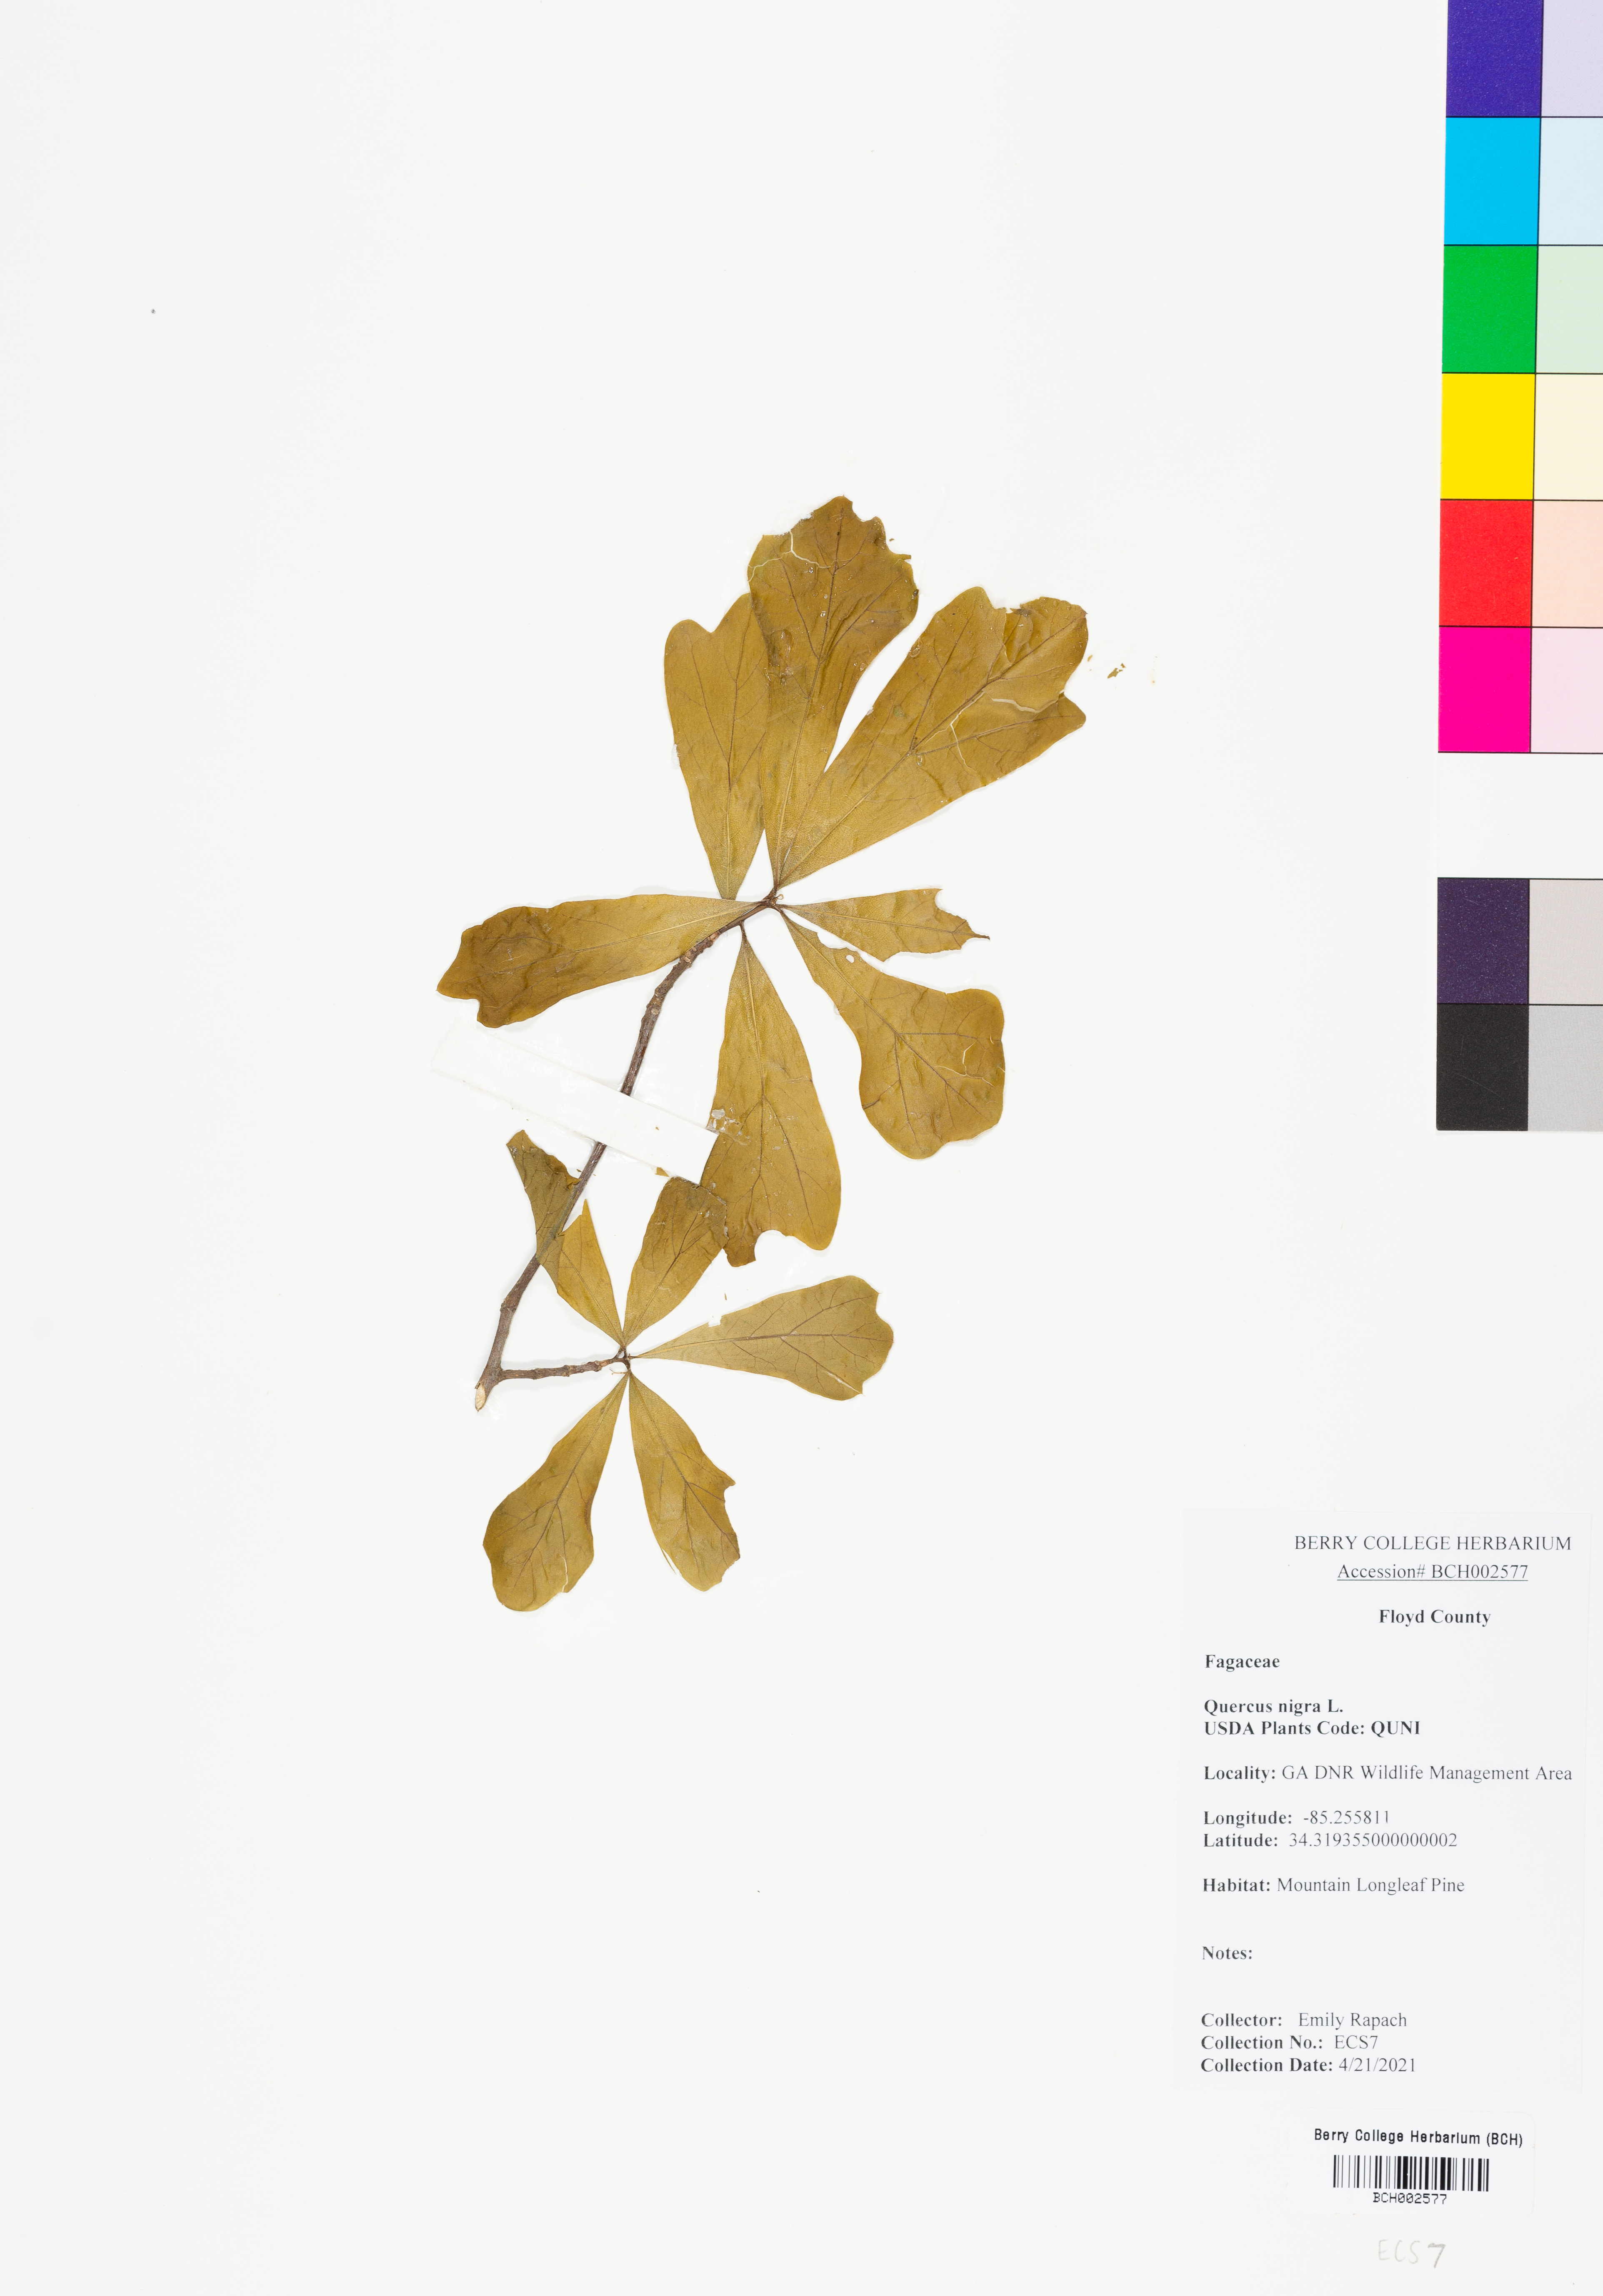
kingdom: Plantae
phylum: Tracheophyta
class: Magnoliopsida
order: Fagales
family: Fagaceae
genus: Quercus
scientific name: Quercus nigra
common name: Water oak
